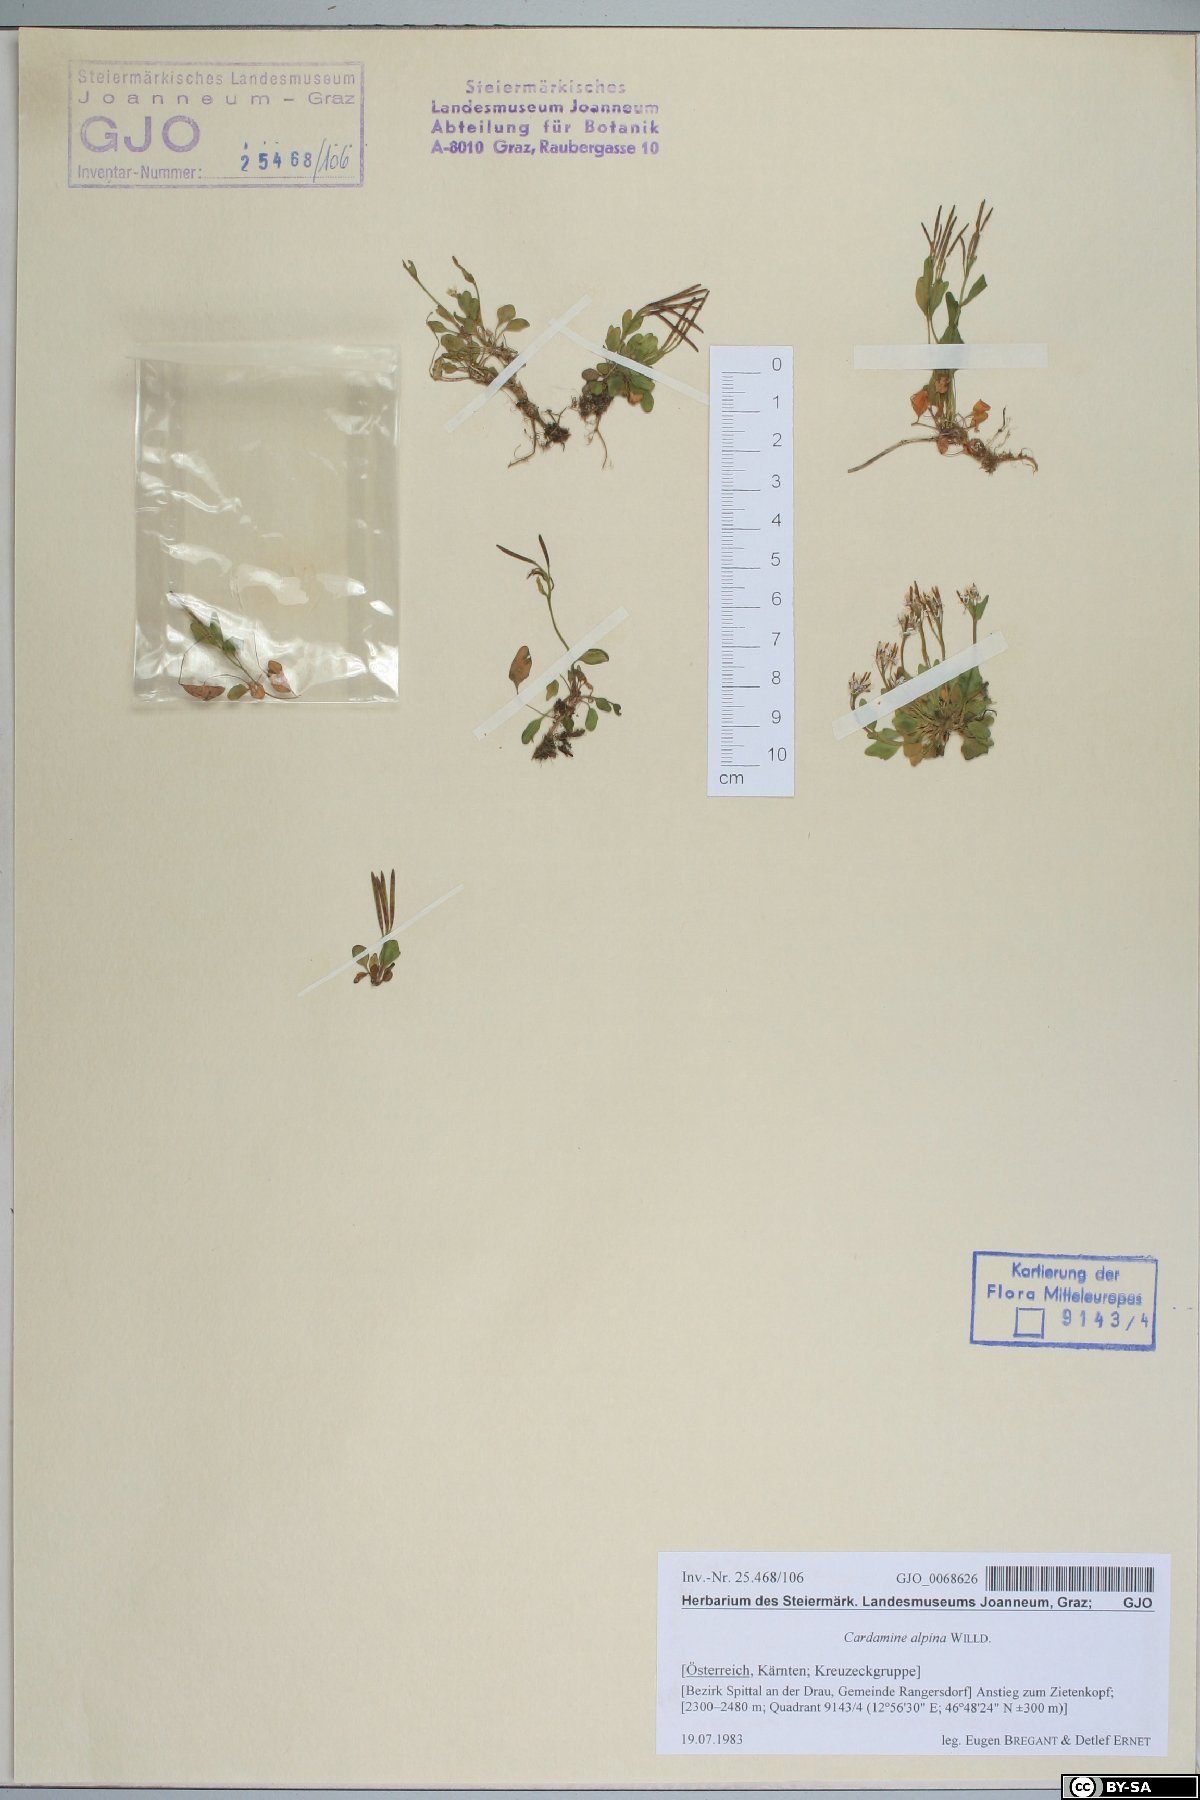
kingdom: Plantae
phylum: Tracheophyta
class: Magnoliopsida
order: Brassicales
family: Brassicaceae
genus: Cardamine
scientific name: Cardamine bellidifolia
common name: Alpine bittercress
